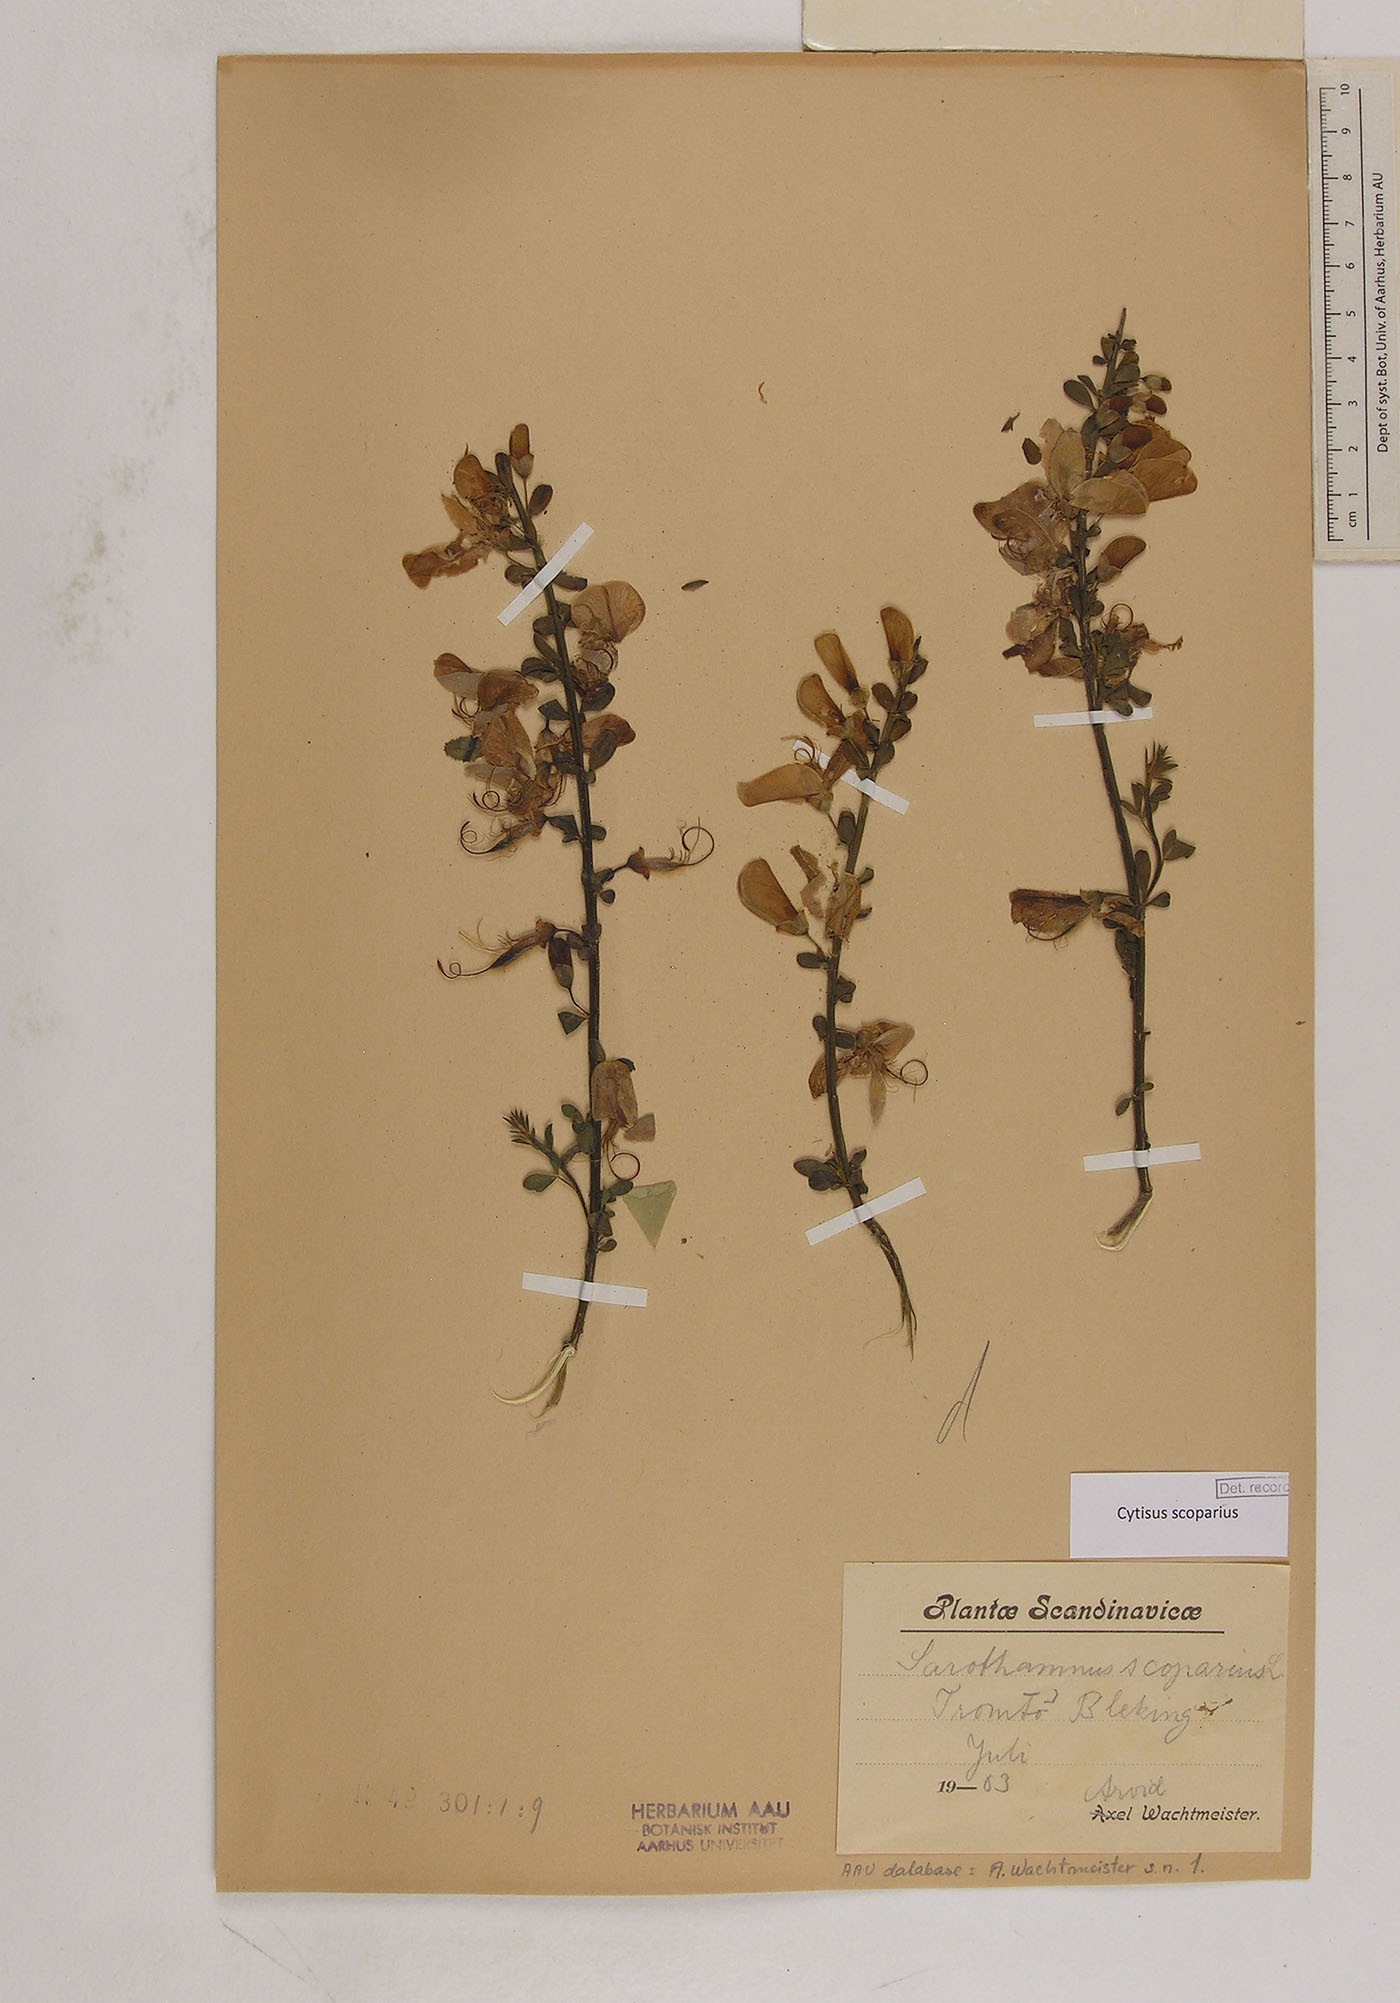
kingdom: Plantae
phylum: Tracheophyta
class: Magnoliopsida
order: Fabales
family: Fabaceae
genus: Cytisus
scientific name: Cytisus scoparius
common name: Scotch broom
